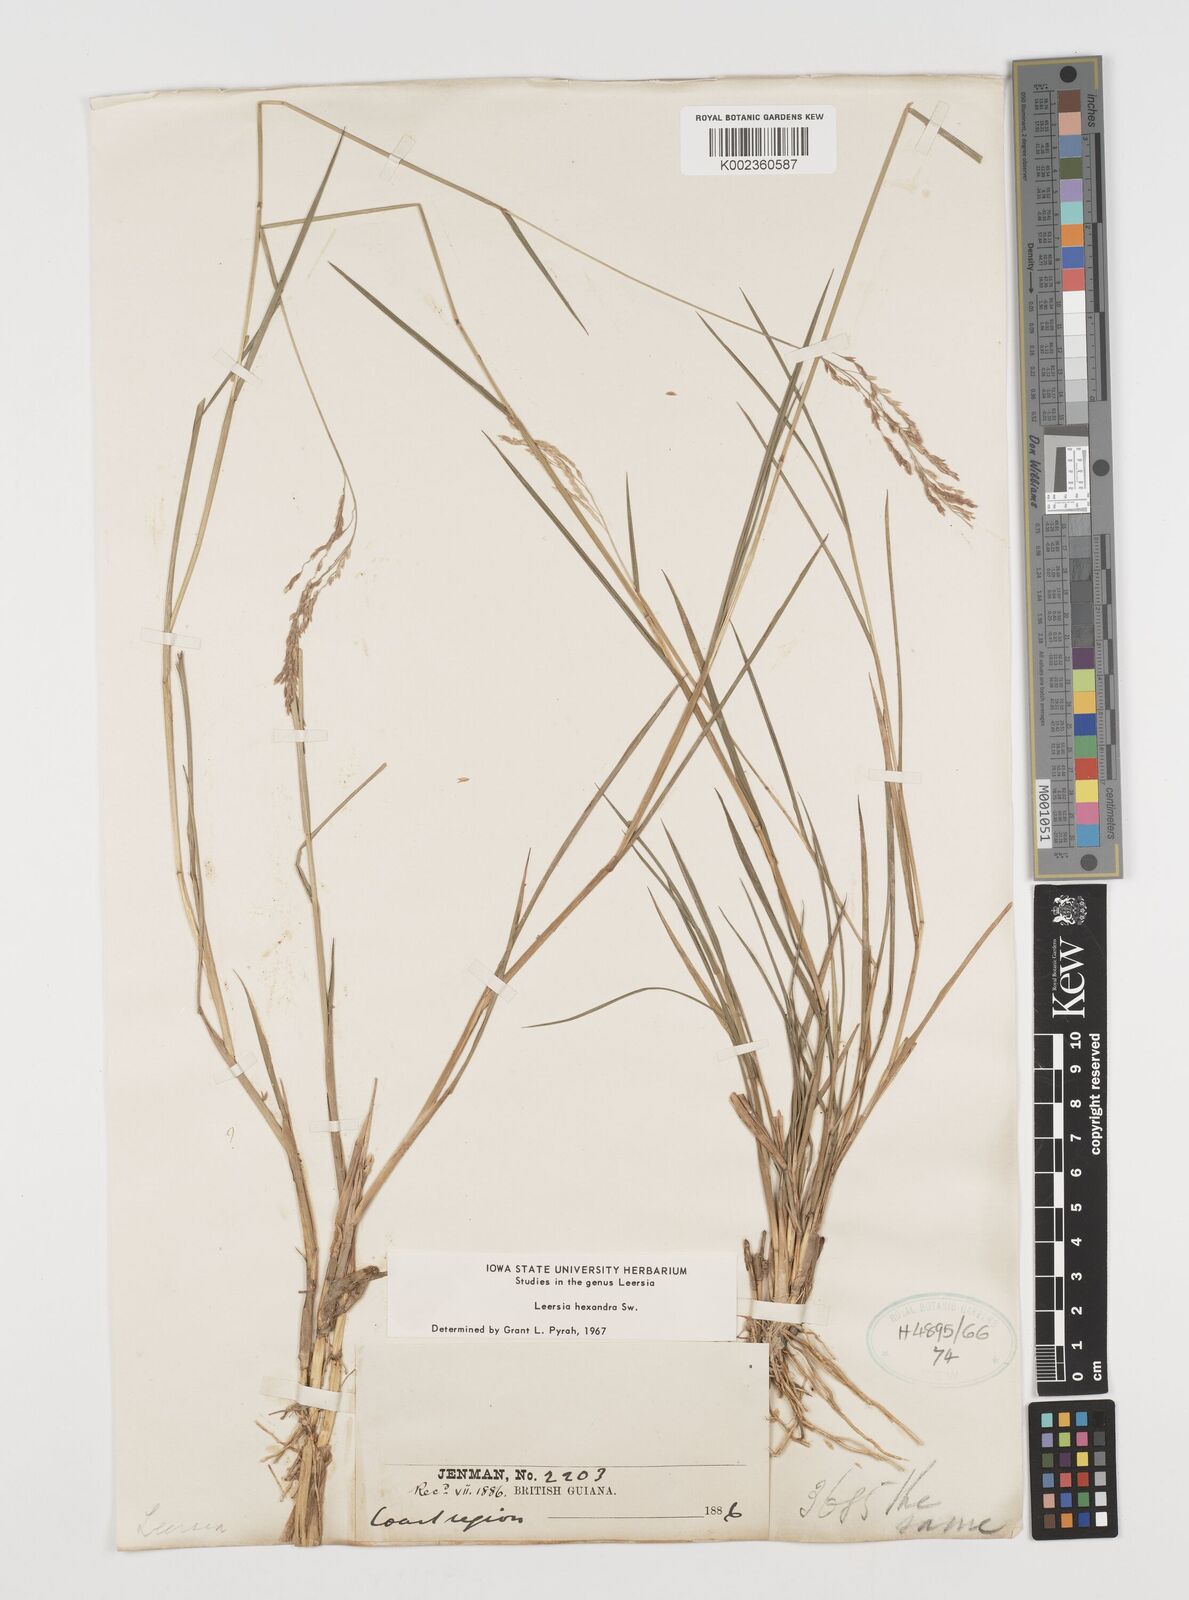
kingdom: Plantae
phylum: Tracheophyta
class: Liliopsida
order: Poales
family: Poaceae
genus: Leersia
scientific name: Leersia hexandra
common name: Southern cut grass
